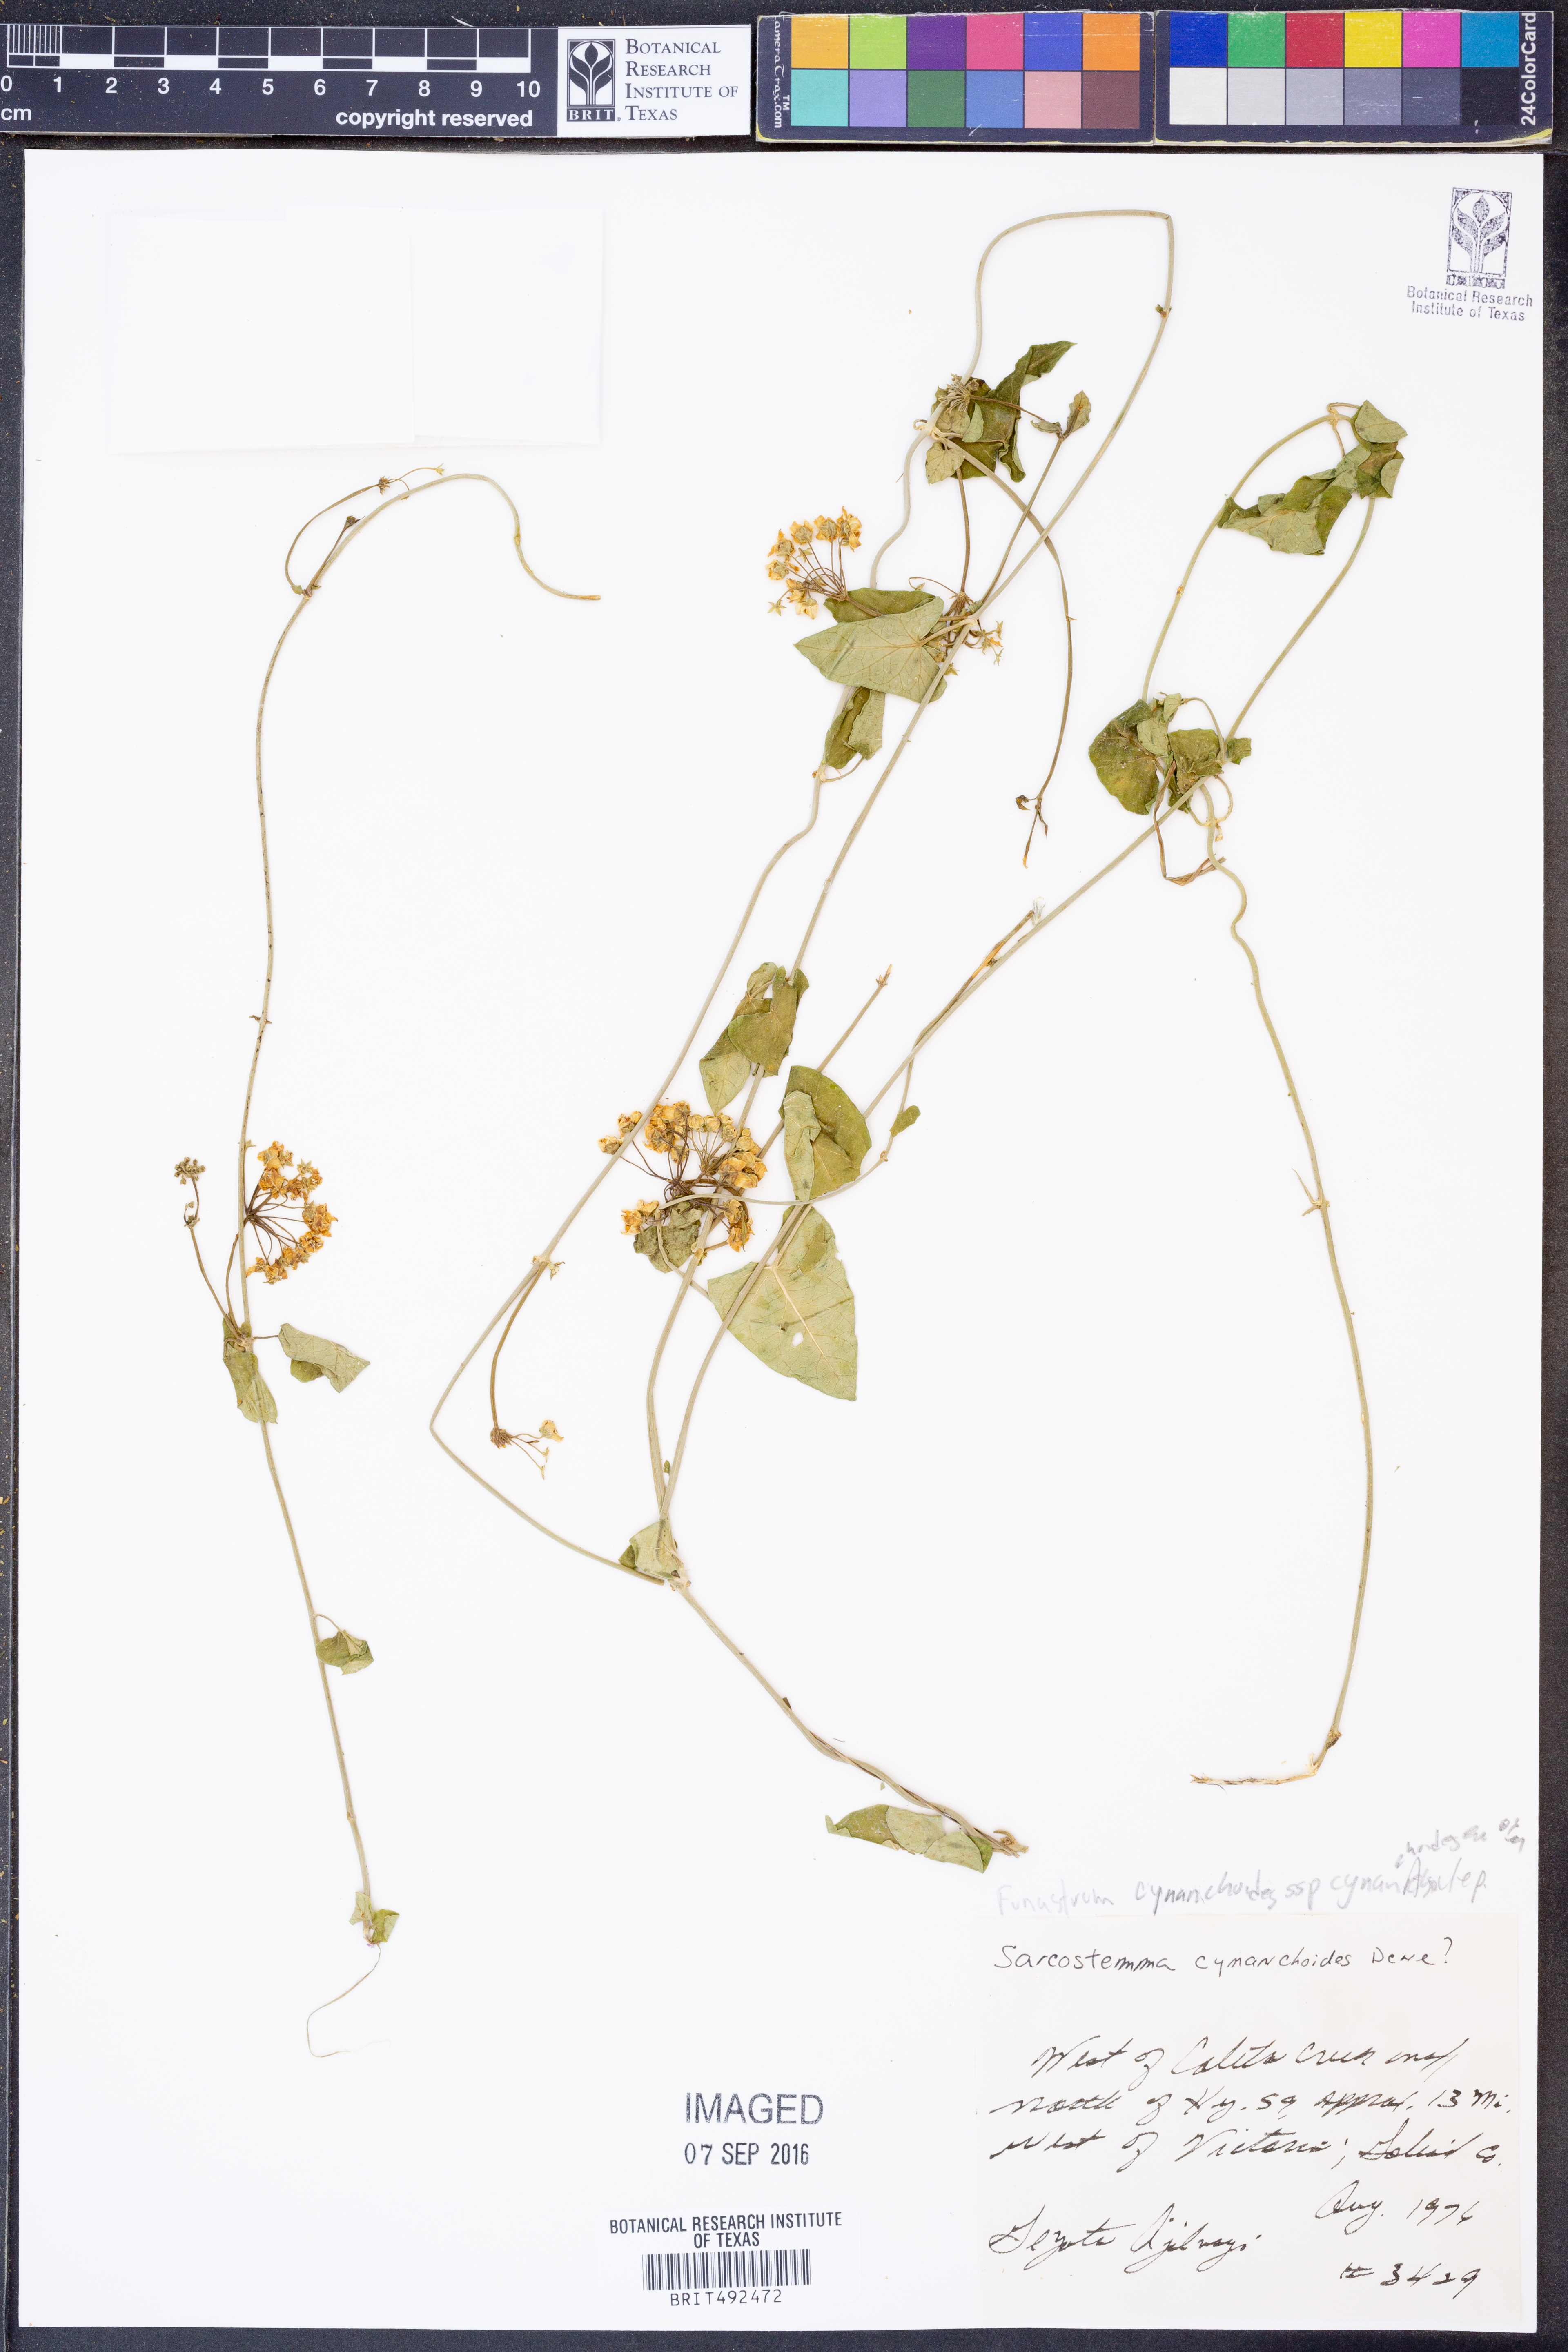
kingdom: Plantae
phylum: Tracheophyta
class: Magnoliopsida
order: Gentianales
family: Apocynaceae
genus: Funastrum
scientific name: Funastrum cynanchoides
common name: Climbing-milkweed
